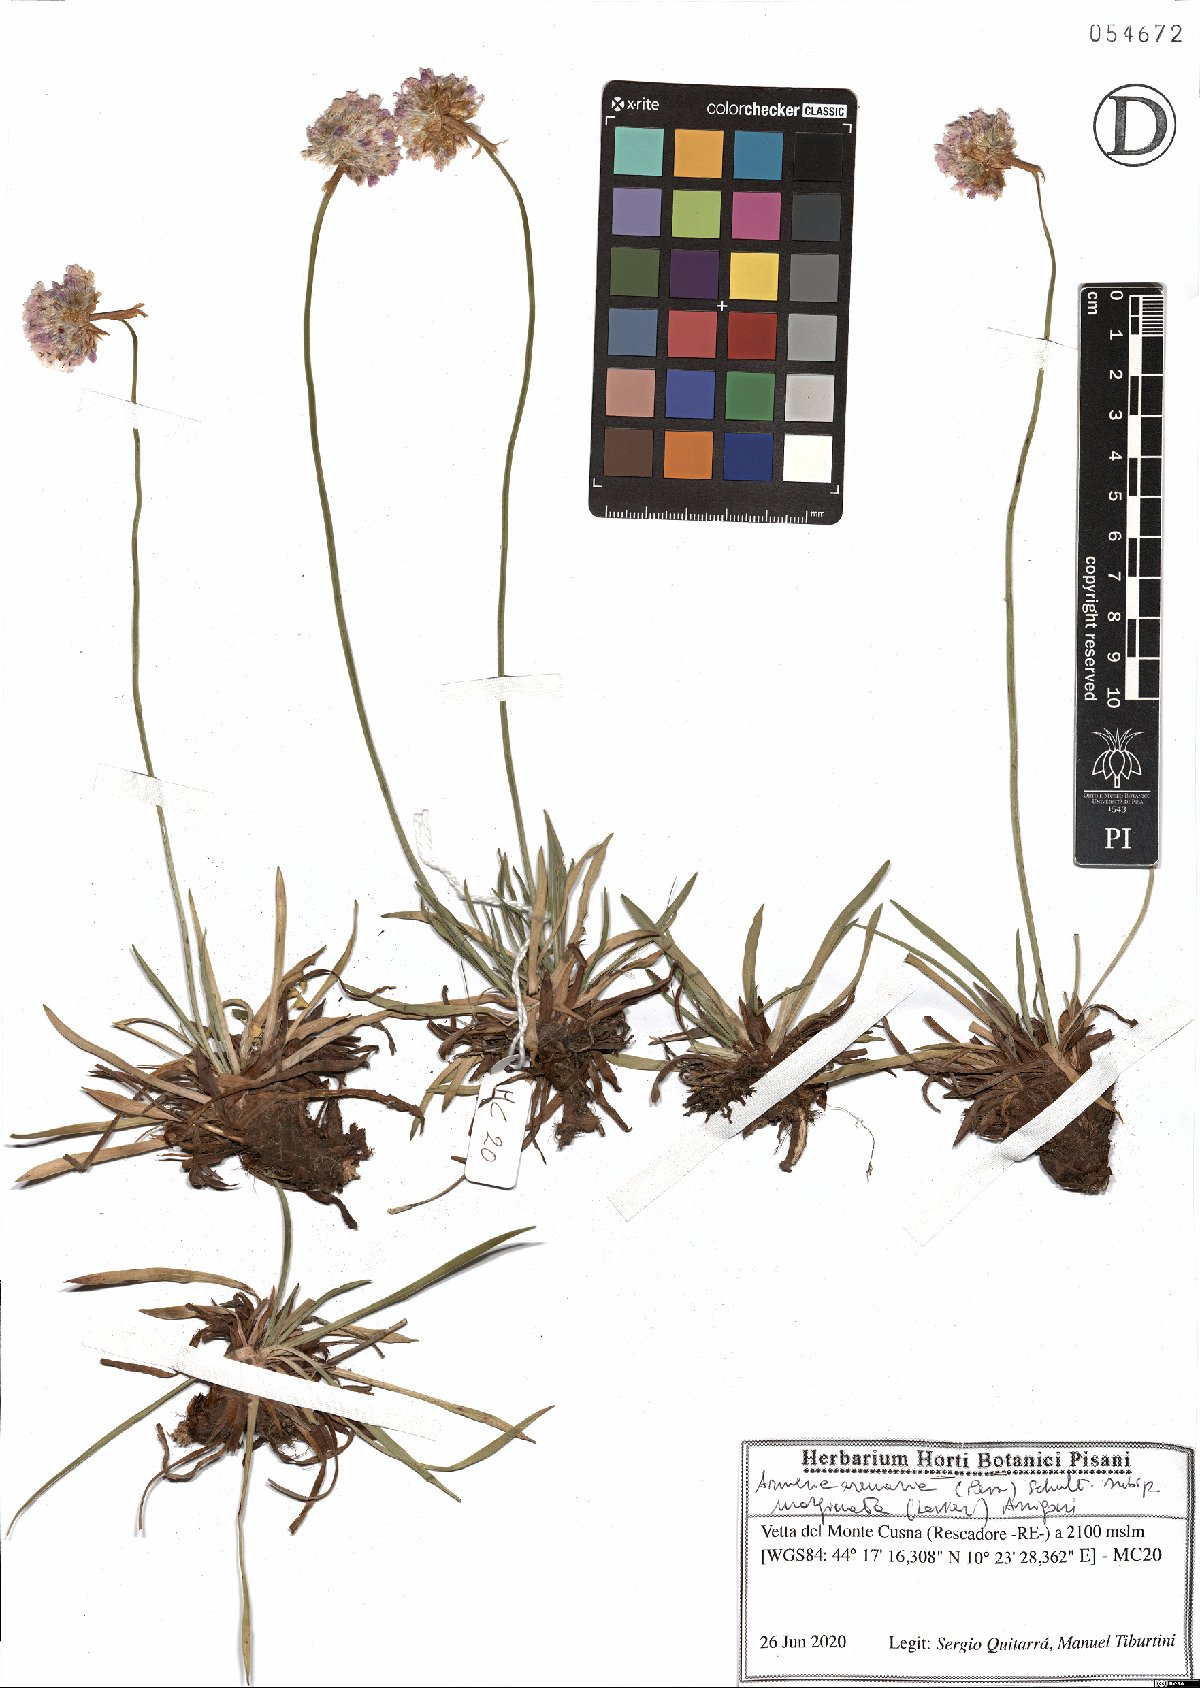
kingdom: Plantae
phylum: Tracheophyta
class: Magnoliopsida
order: Caryophyllales
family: Plumbaginaceae
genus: Armeria
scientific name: Armeria arenaria
